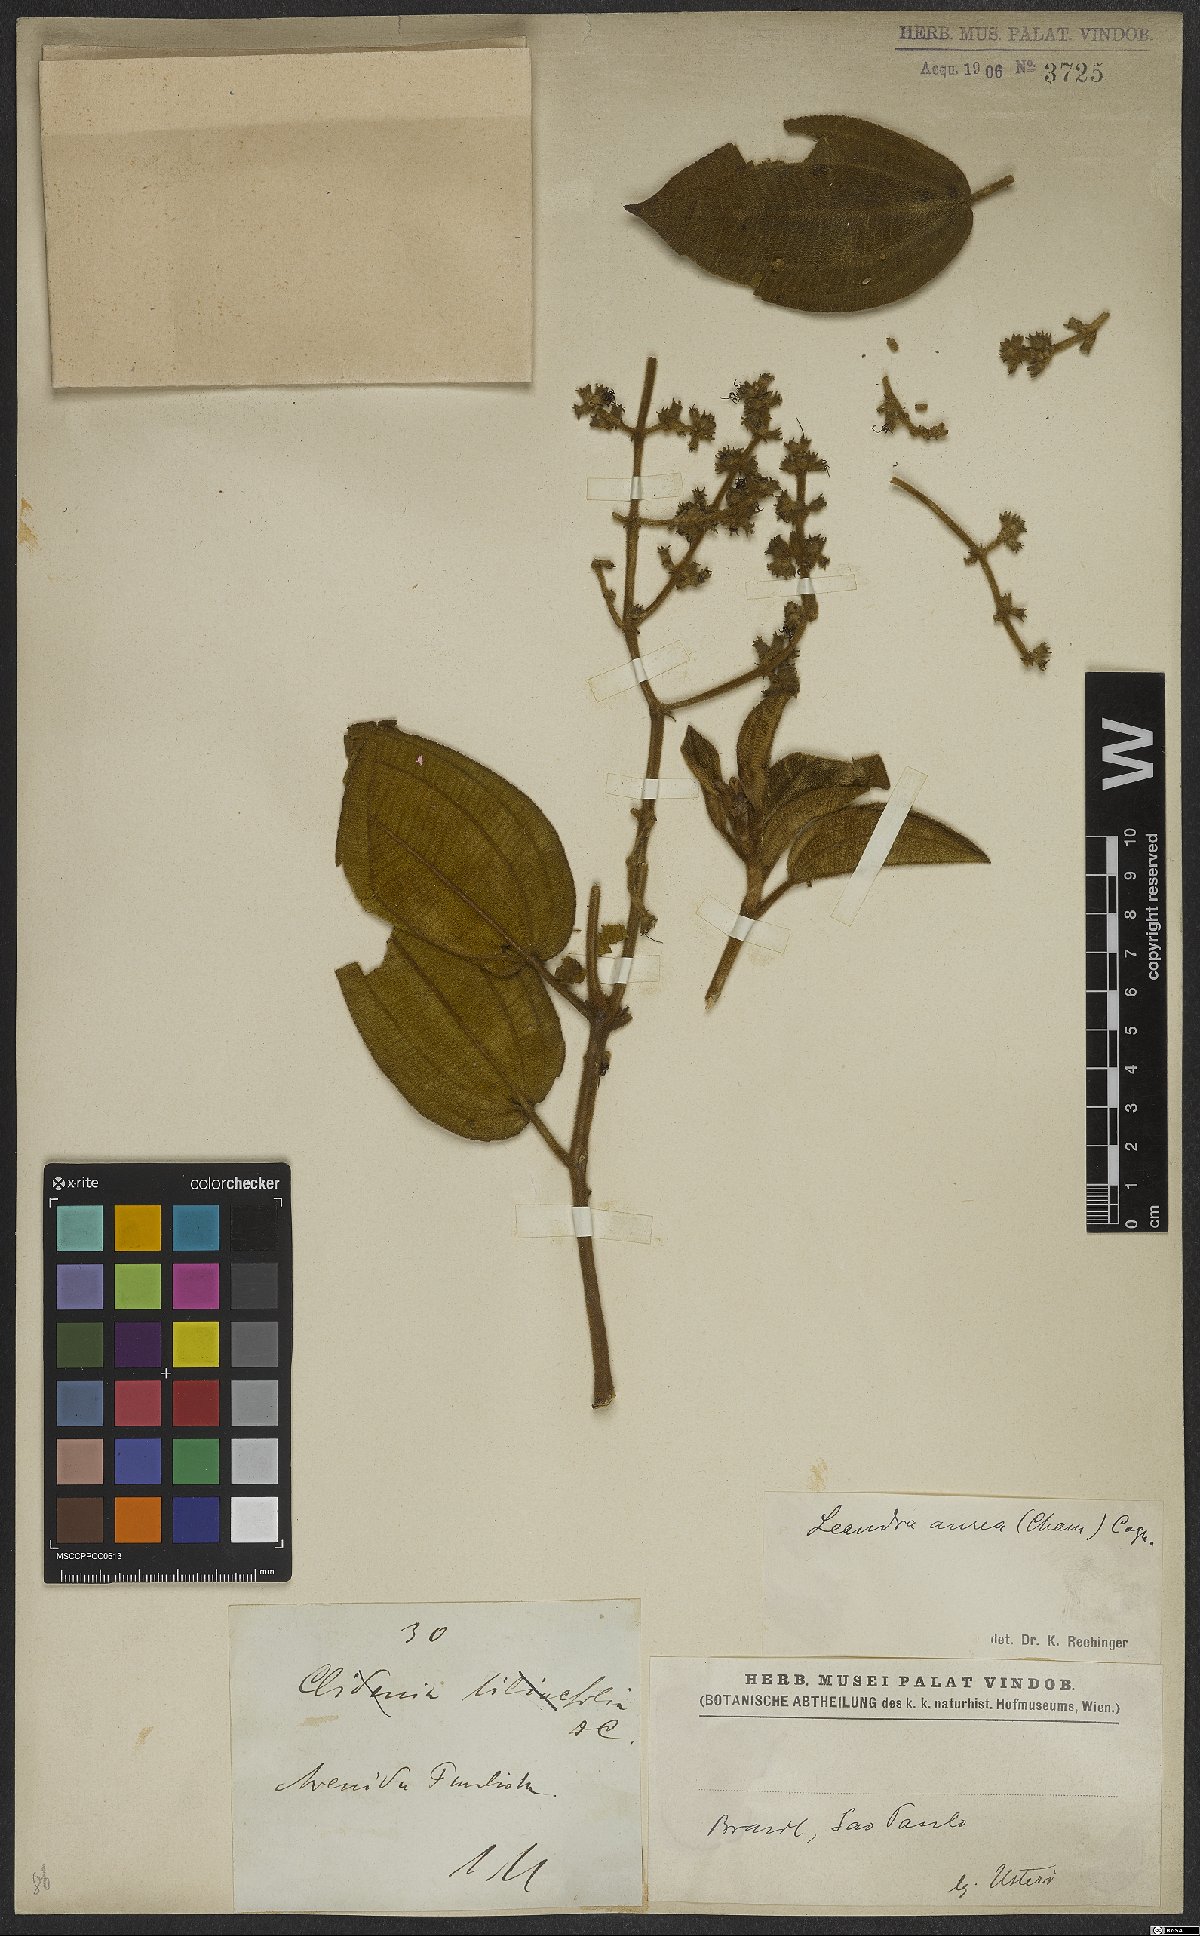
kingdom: Plantae
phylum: Tracheophyta
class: Magnoliopsida
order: Myrtales
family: Melastomataceae
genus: Miconia
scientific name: Miconia auricoma
